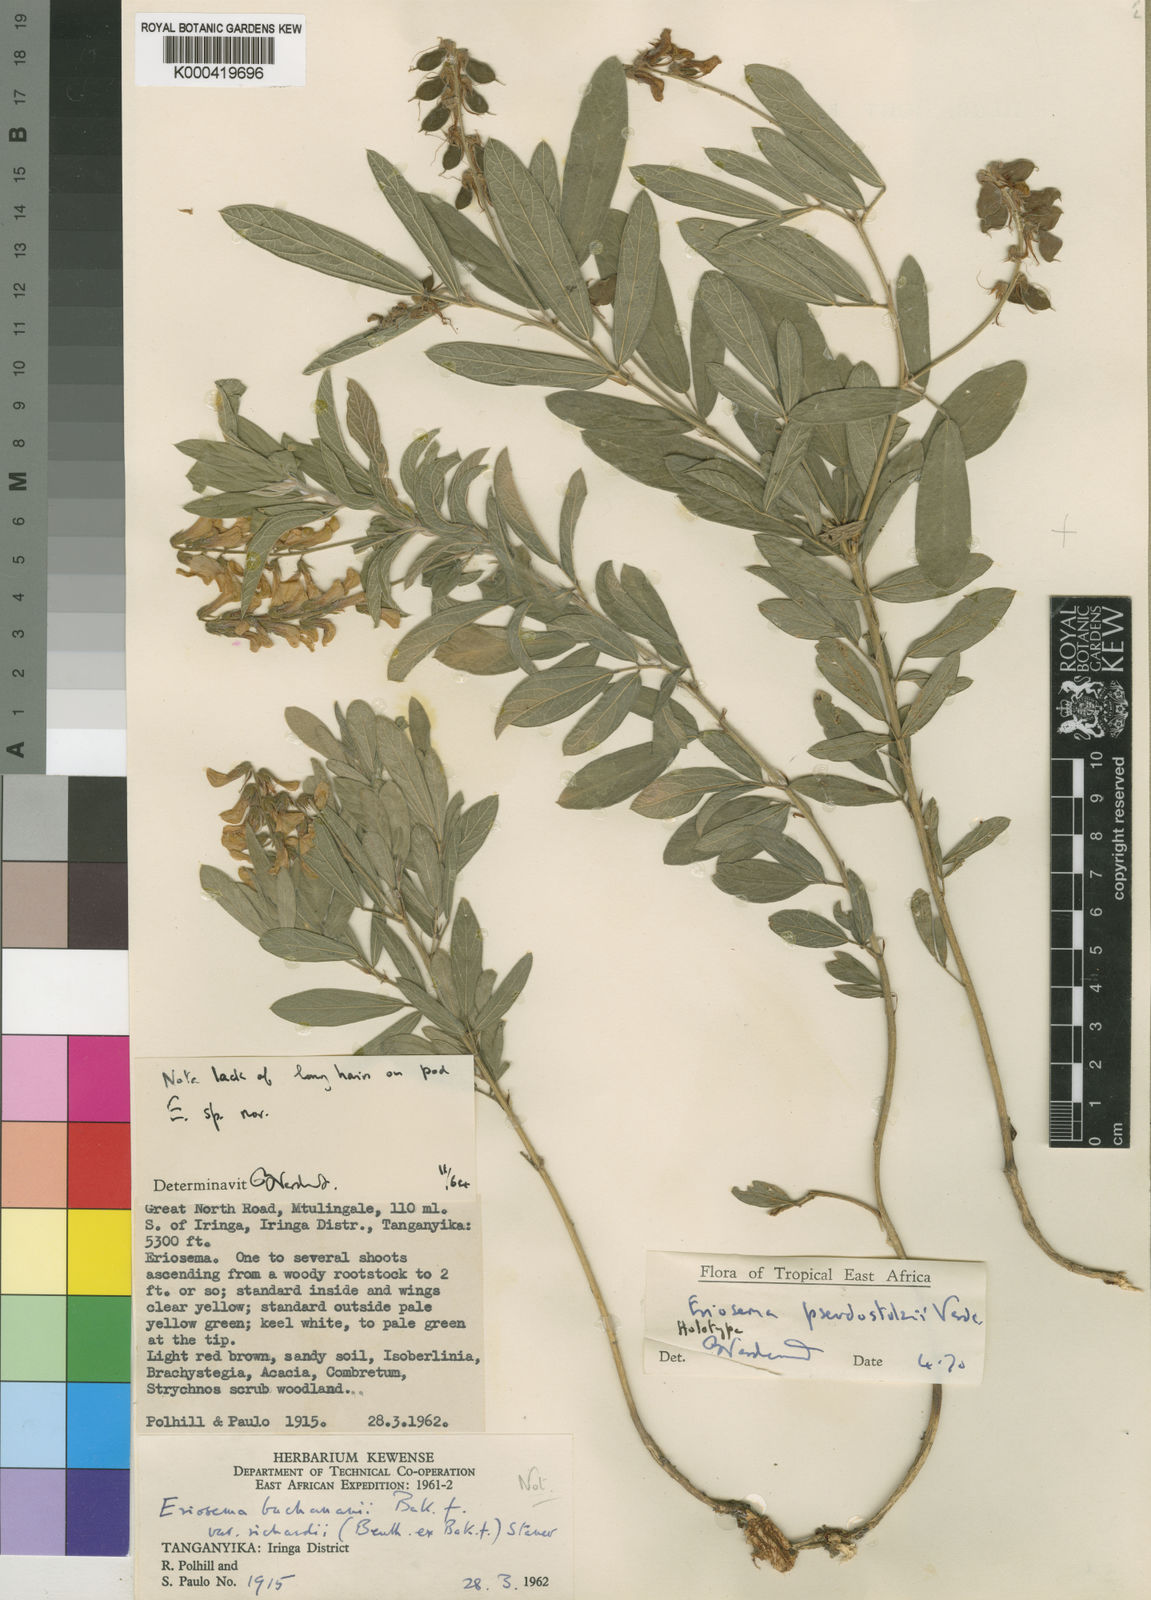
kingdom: Plantae
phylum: Tracheophyta
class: Magnoliopsida
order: Fabales
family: Fabaceae
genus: Eriosema
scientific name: Eriosema pseudostolzii
